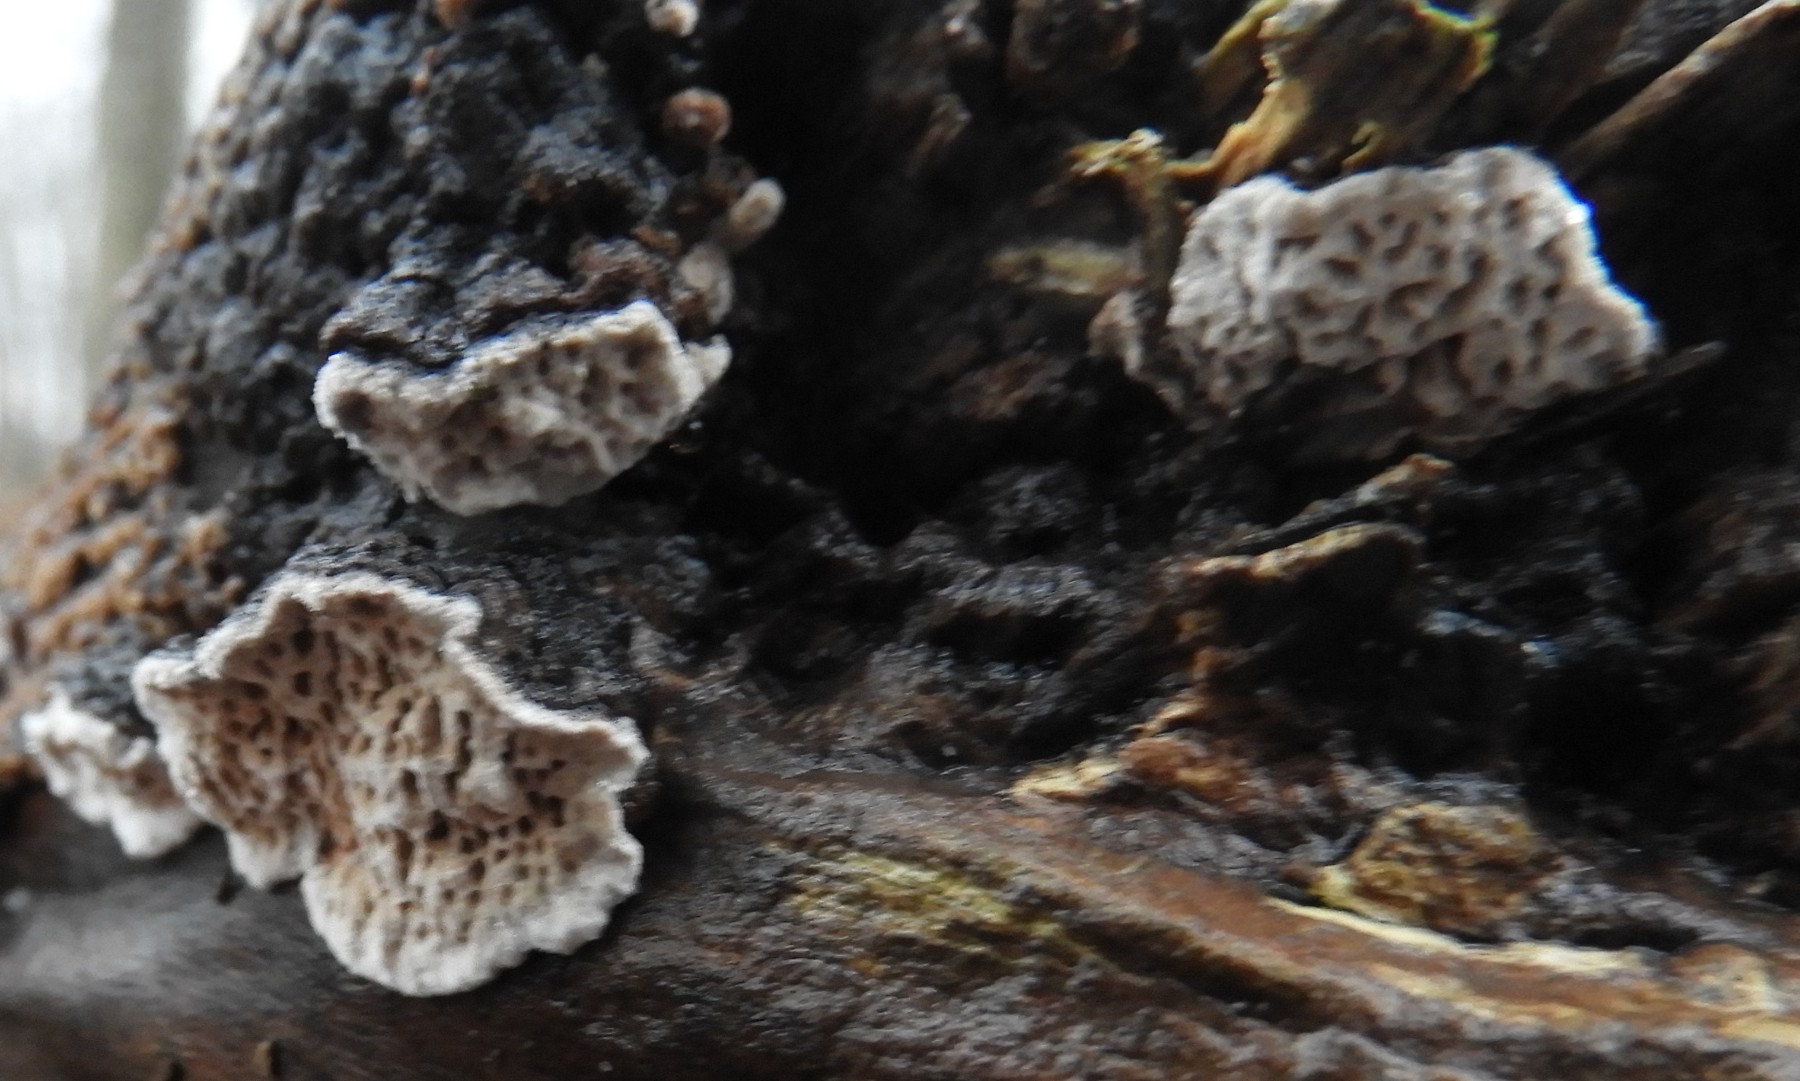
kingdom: Fungi
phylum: Basidiomycota
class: Agaricomycetes
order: Polyporales
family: Polyporaceae
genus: Podofomes
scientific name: Podofomes mollis
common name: blød begporesvamp
